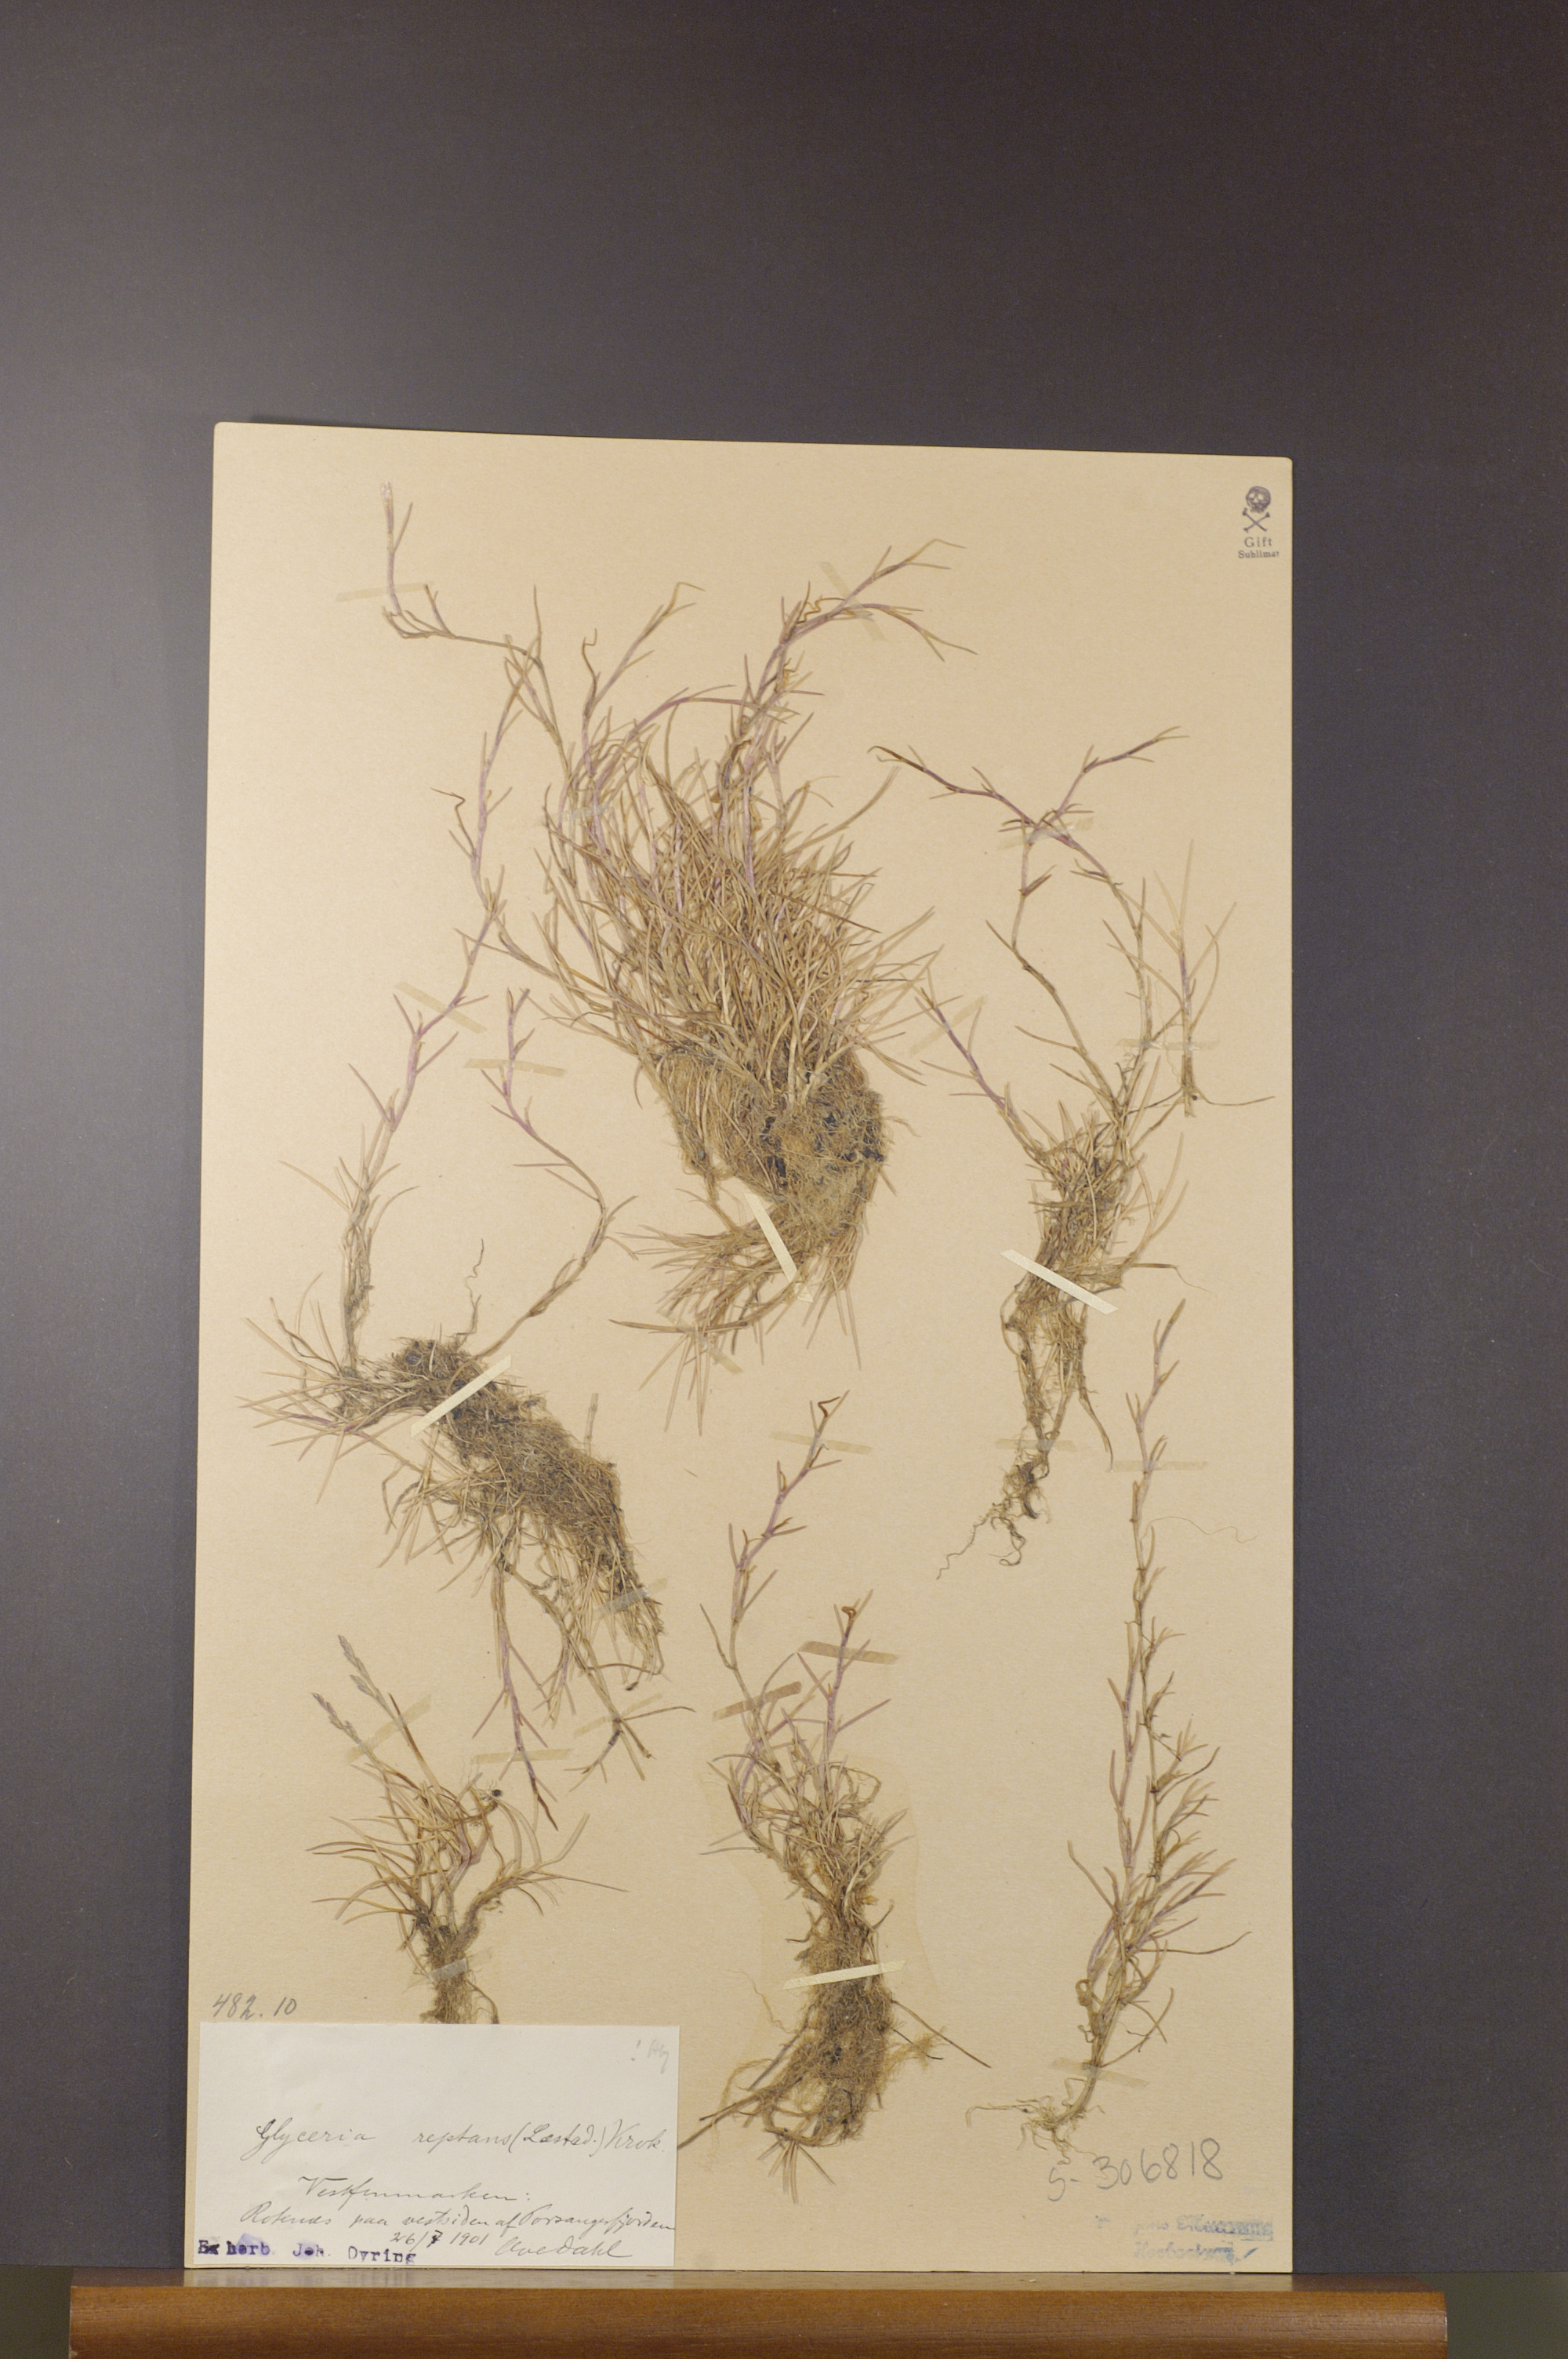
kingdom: Plantae
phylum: Tracheophyta
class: Liliopsida
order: Poales
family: Poaceae
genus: Puccinellia
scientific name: Puccinellia phryganodes
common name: Creeping alkaligrass
